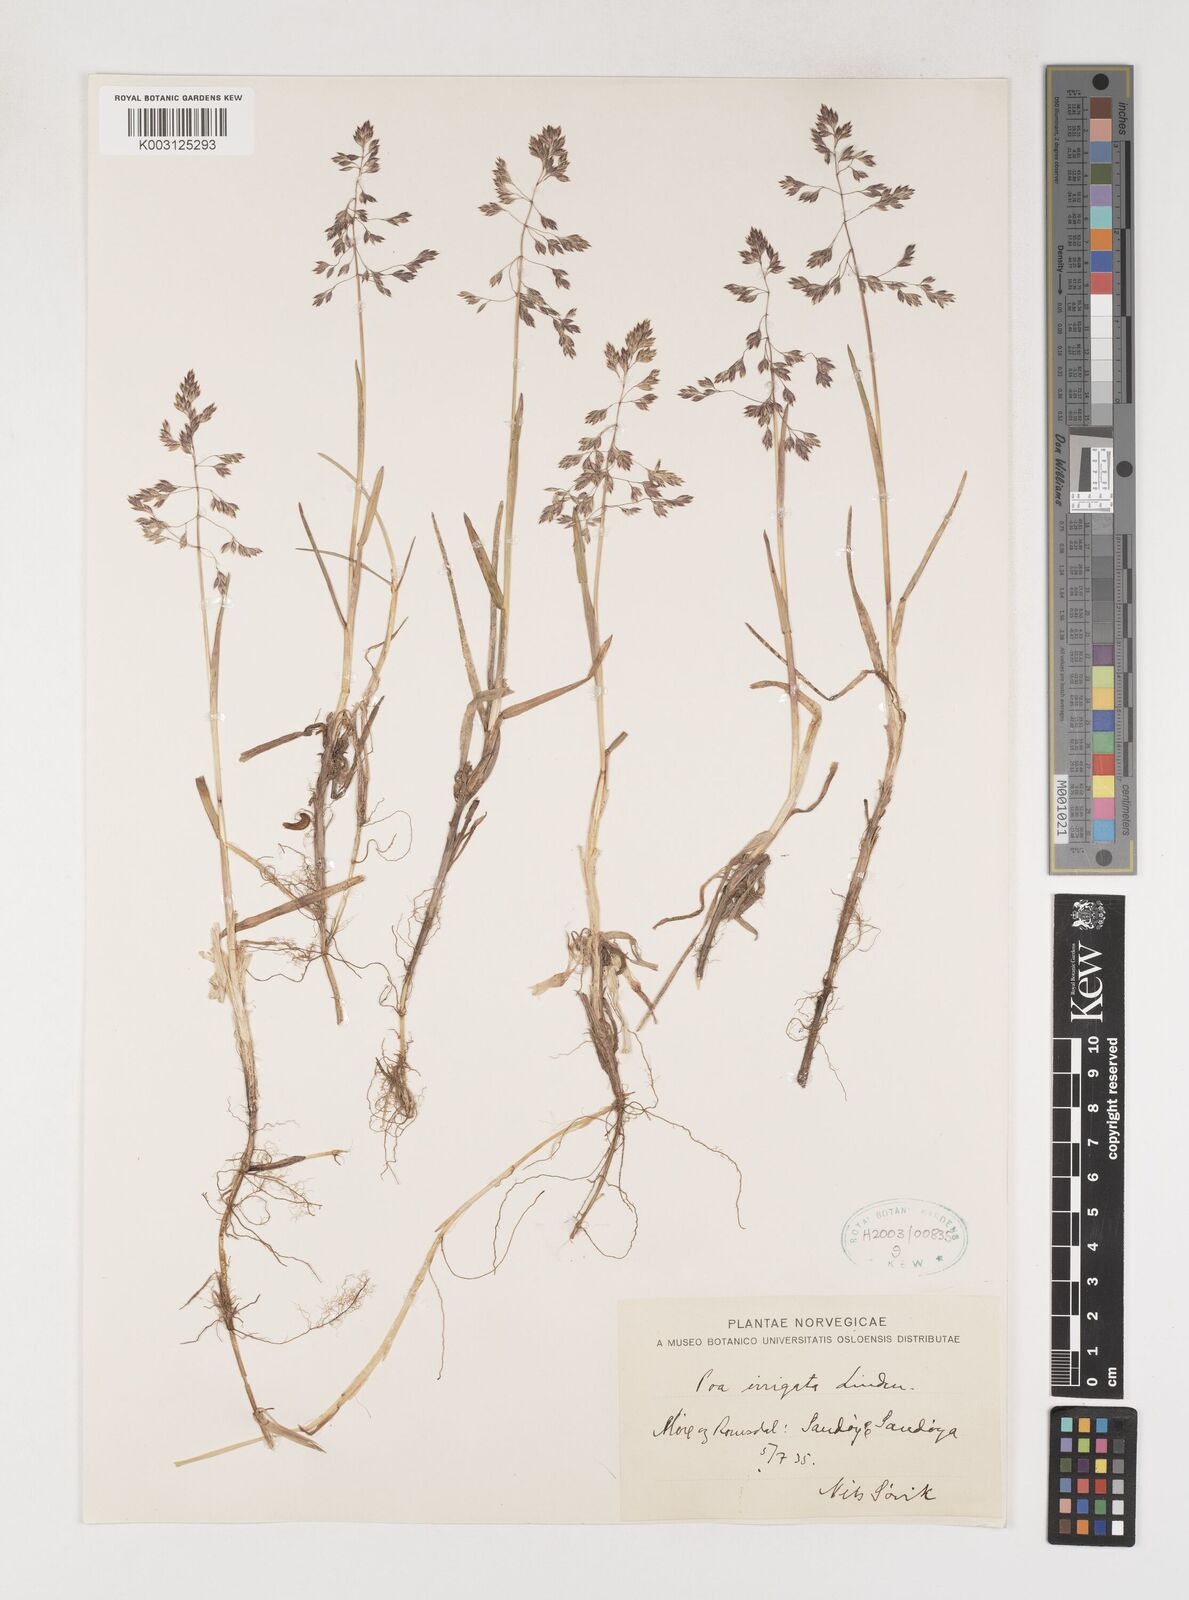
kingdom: Plantae
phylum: Tracheophyta
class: Liliopsida
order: Poales
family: Poaceae
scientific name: Poaceae
